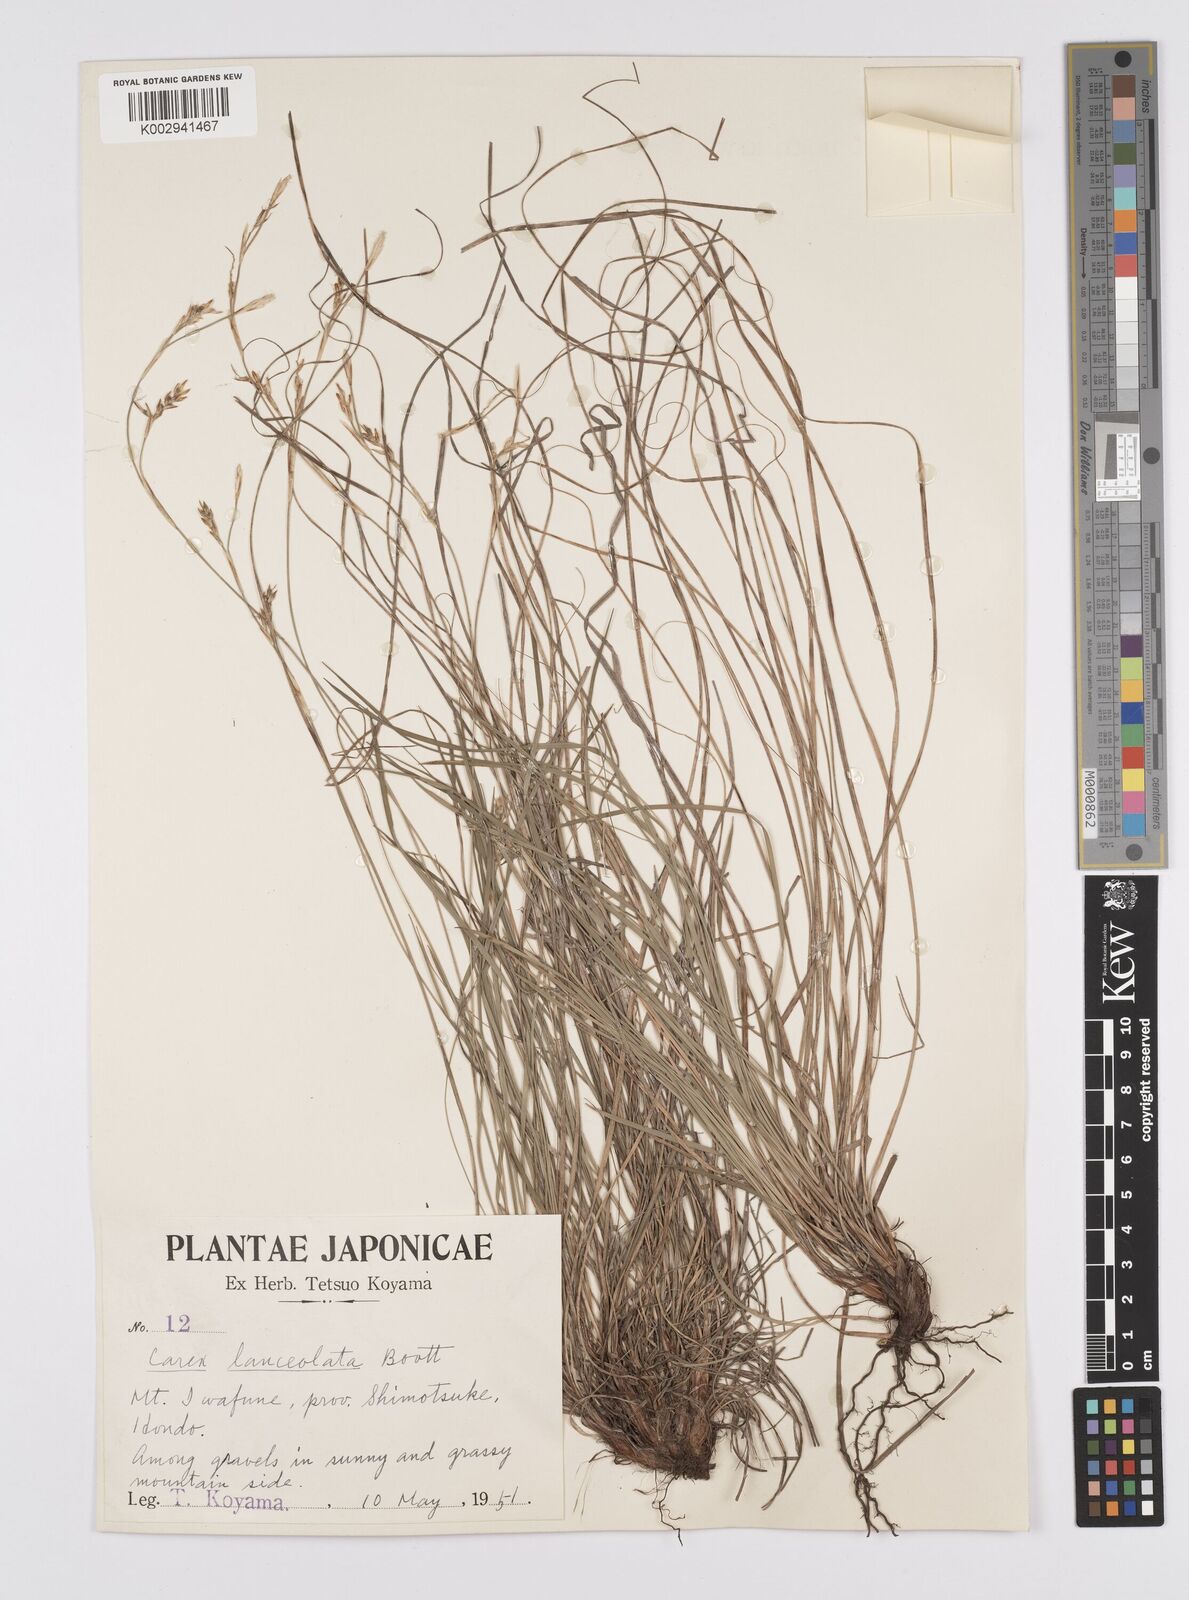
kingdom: Plantae
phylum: Tracheophyta
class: Liliopsida
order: Poales
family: Cyperaceae
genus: Carex
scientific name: Carex lanceolata
